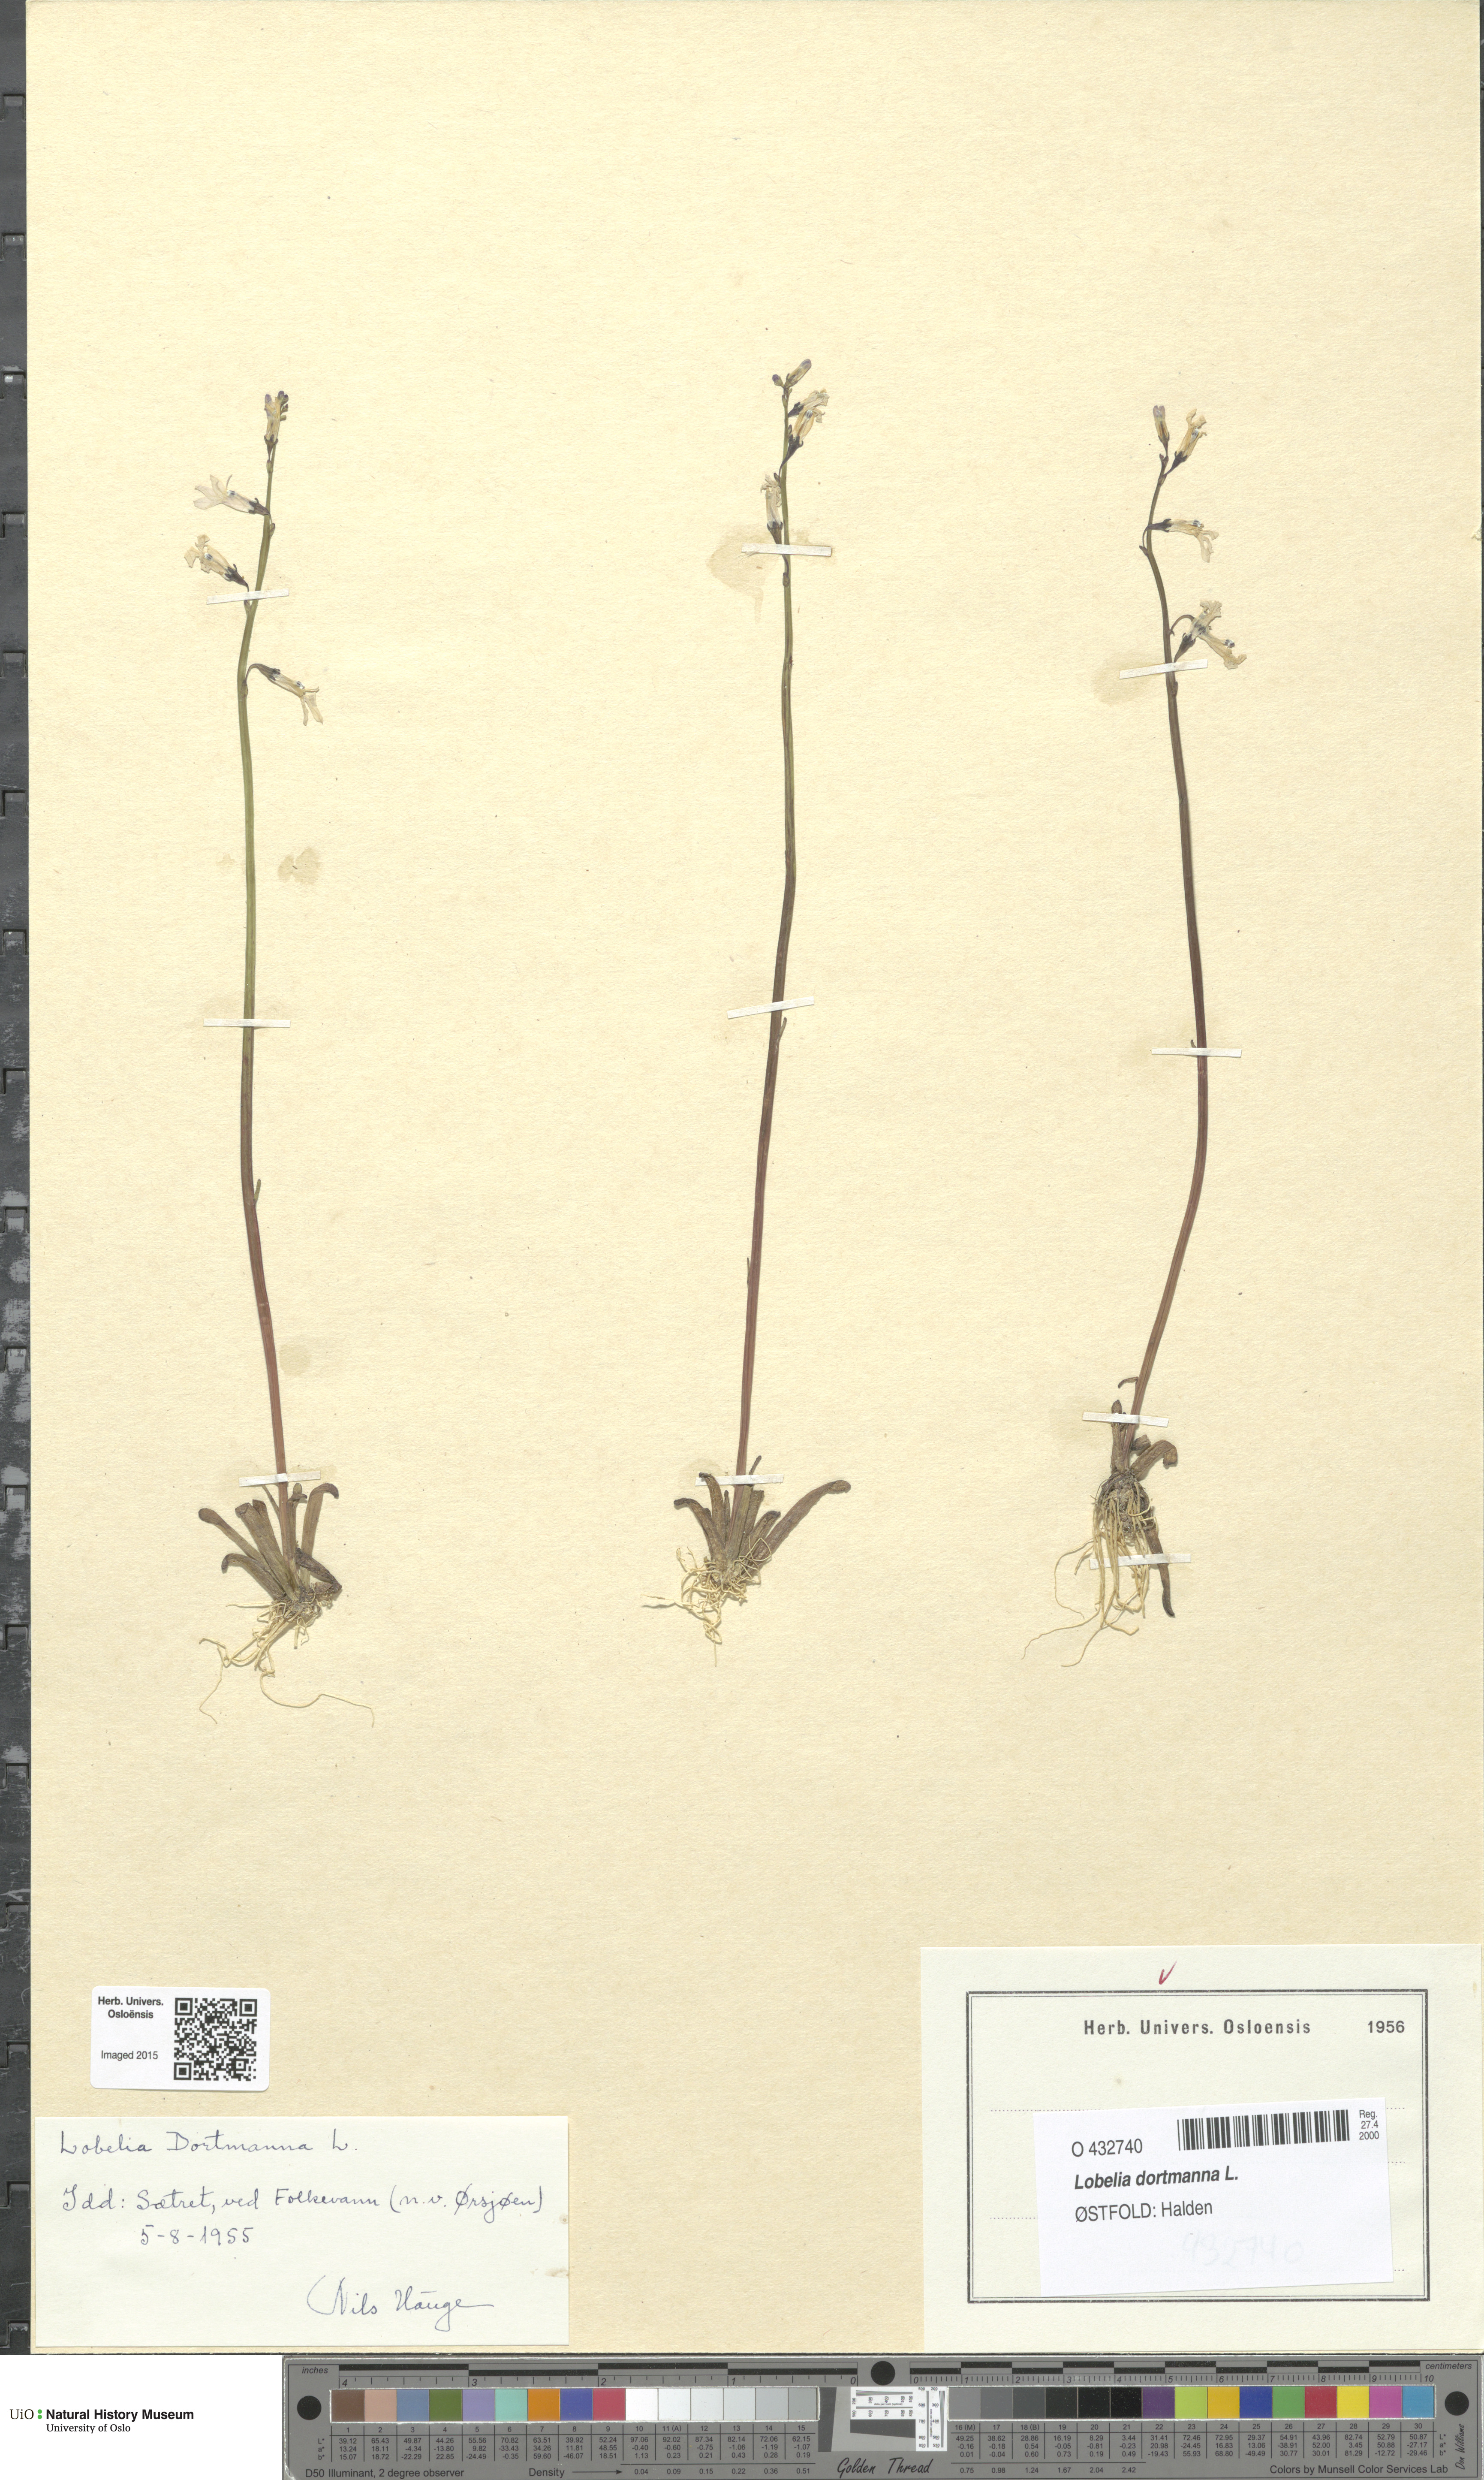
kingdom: Plantae
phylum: Tracheophyta
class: Magnoliopsida
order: Asterales
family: Campanulaceae
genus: Lobelia
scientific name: Lobelia dortmanna
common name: Water lobelia
